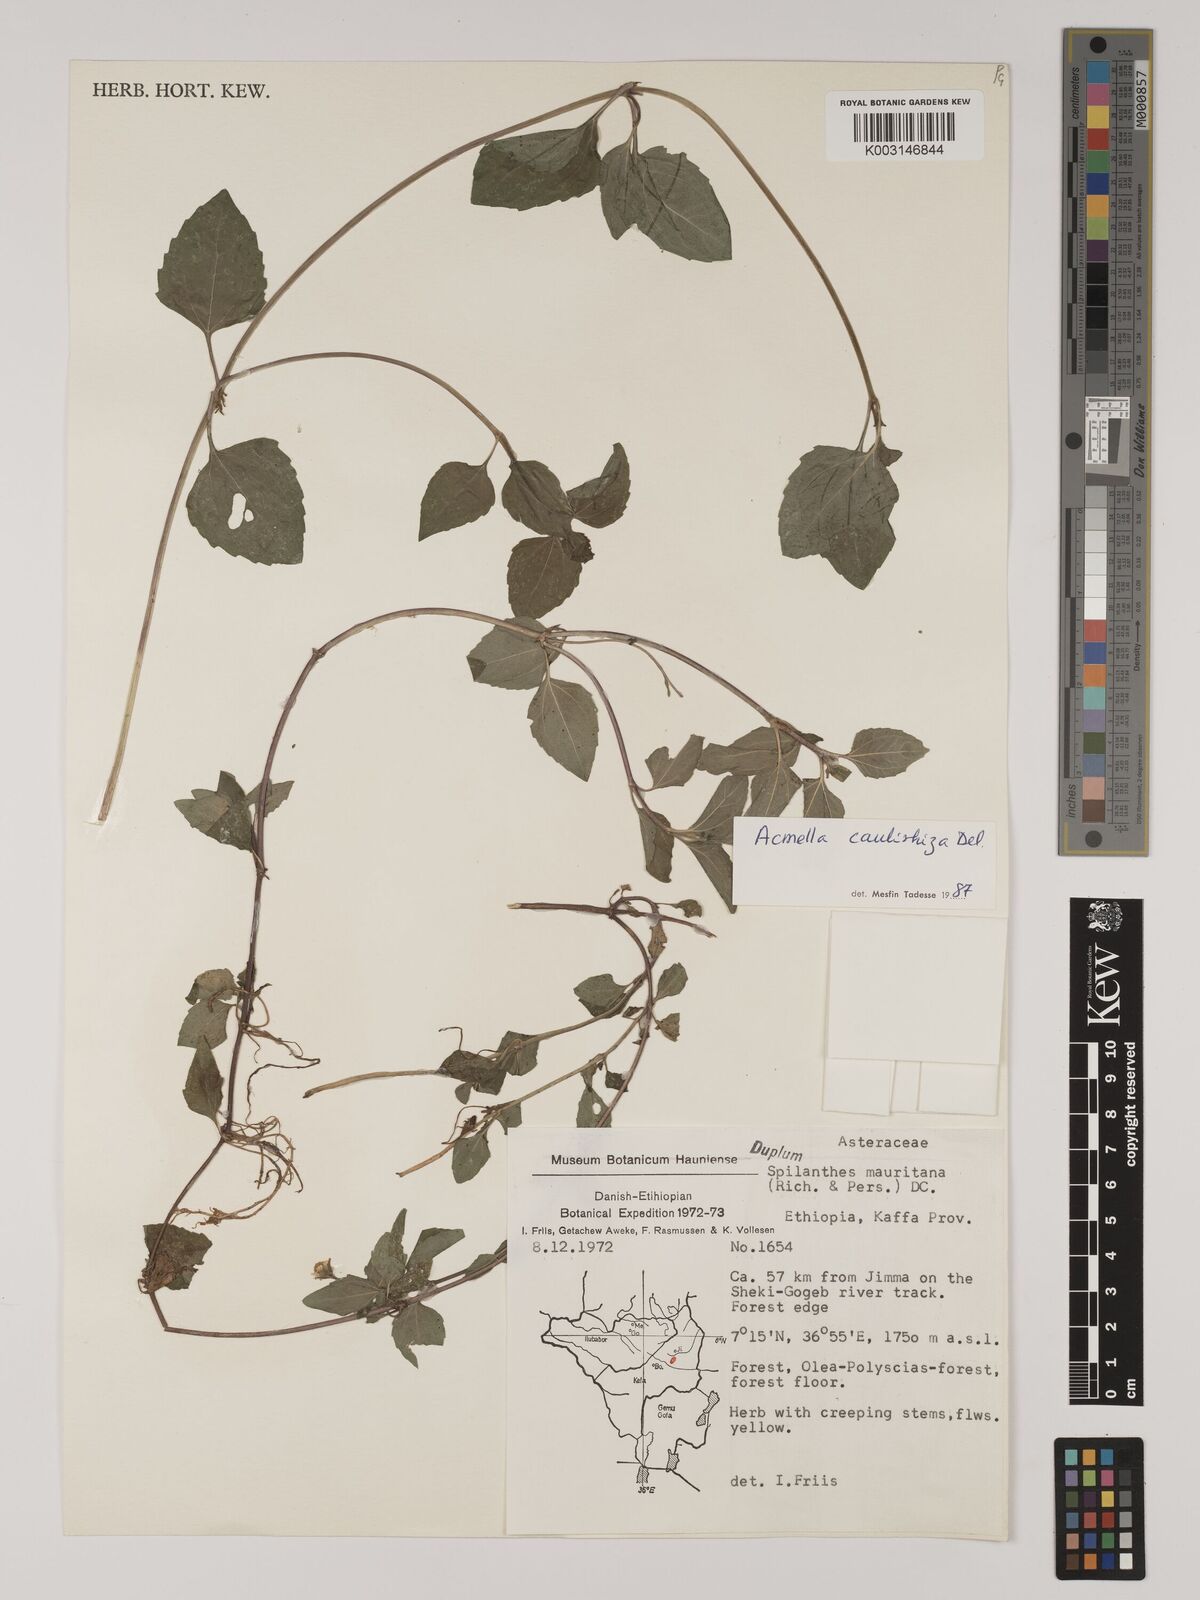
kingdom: Plantae
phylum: Tracheophyta
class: Magnoliopsida
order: Asterales
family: Asteraceae
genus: Acmella
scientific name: Acmella caulirhiza
